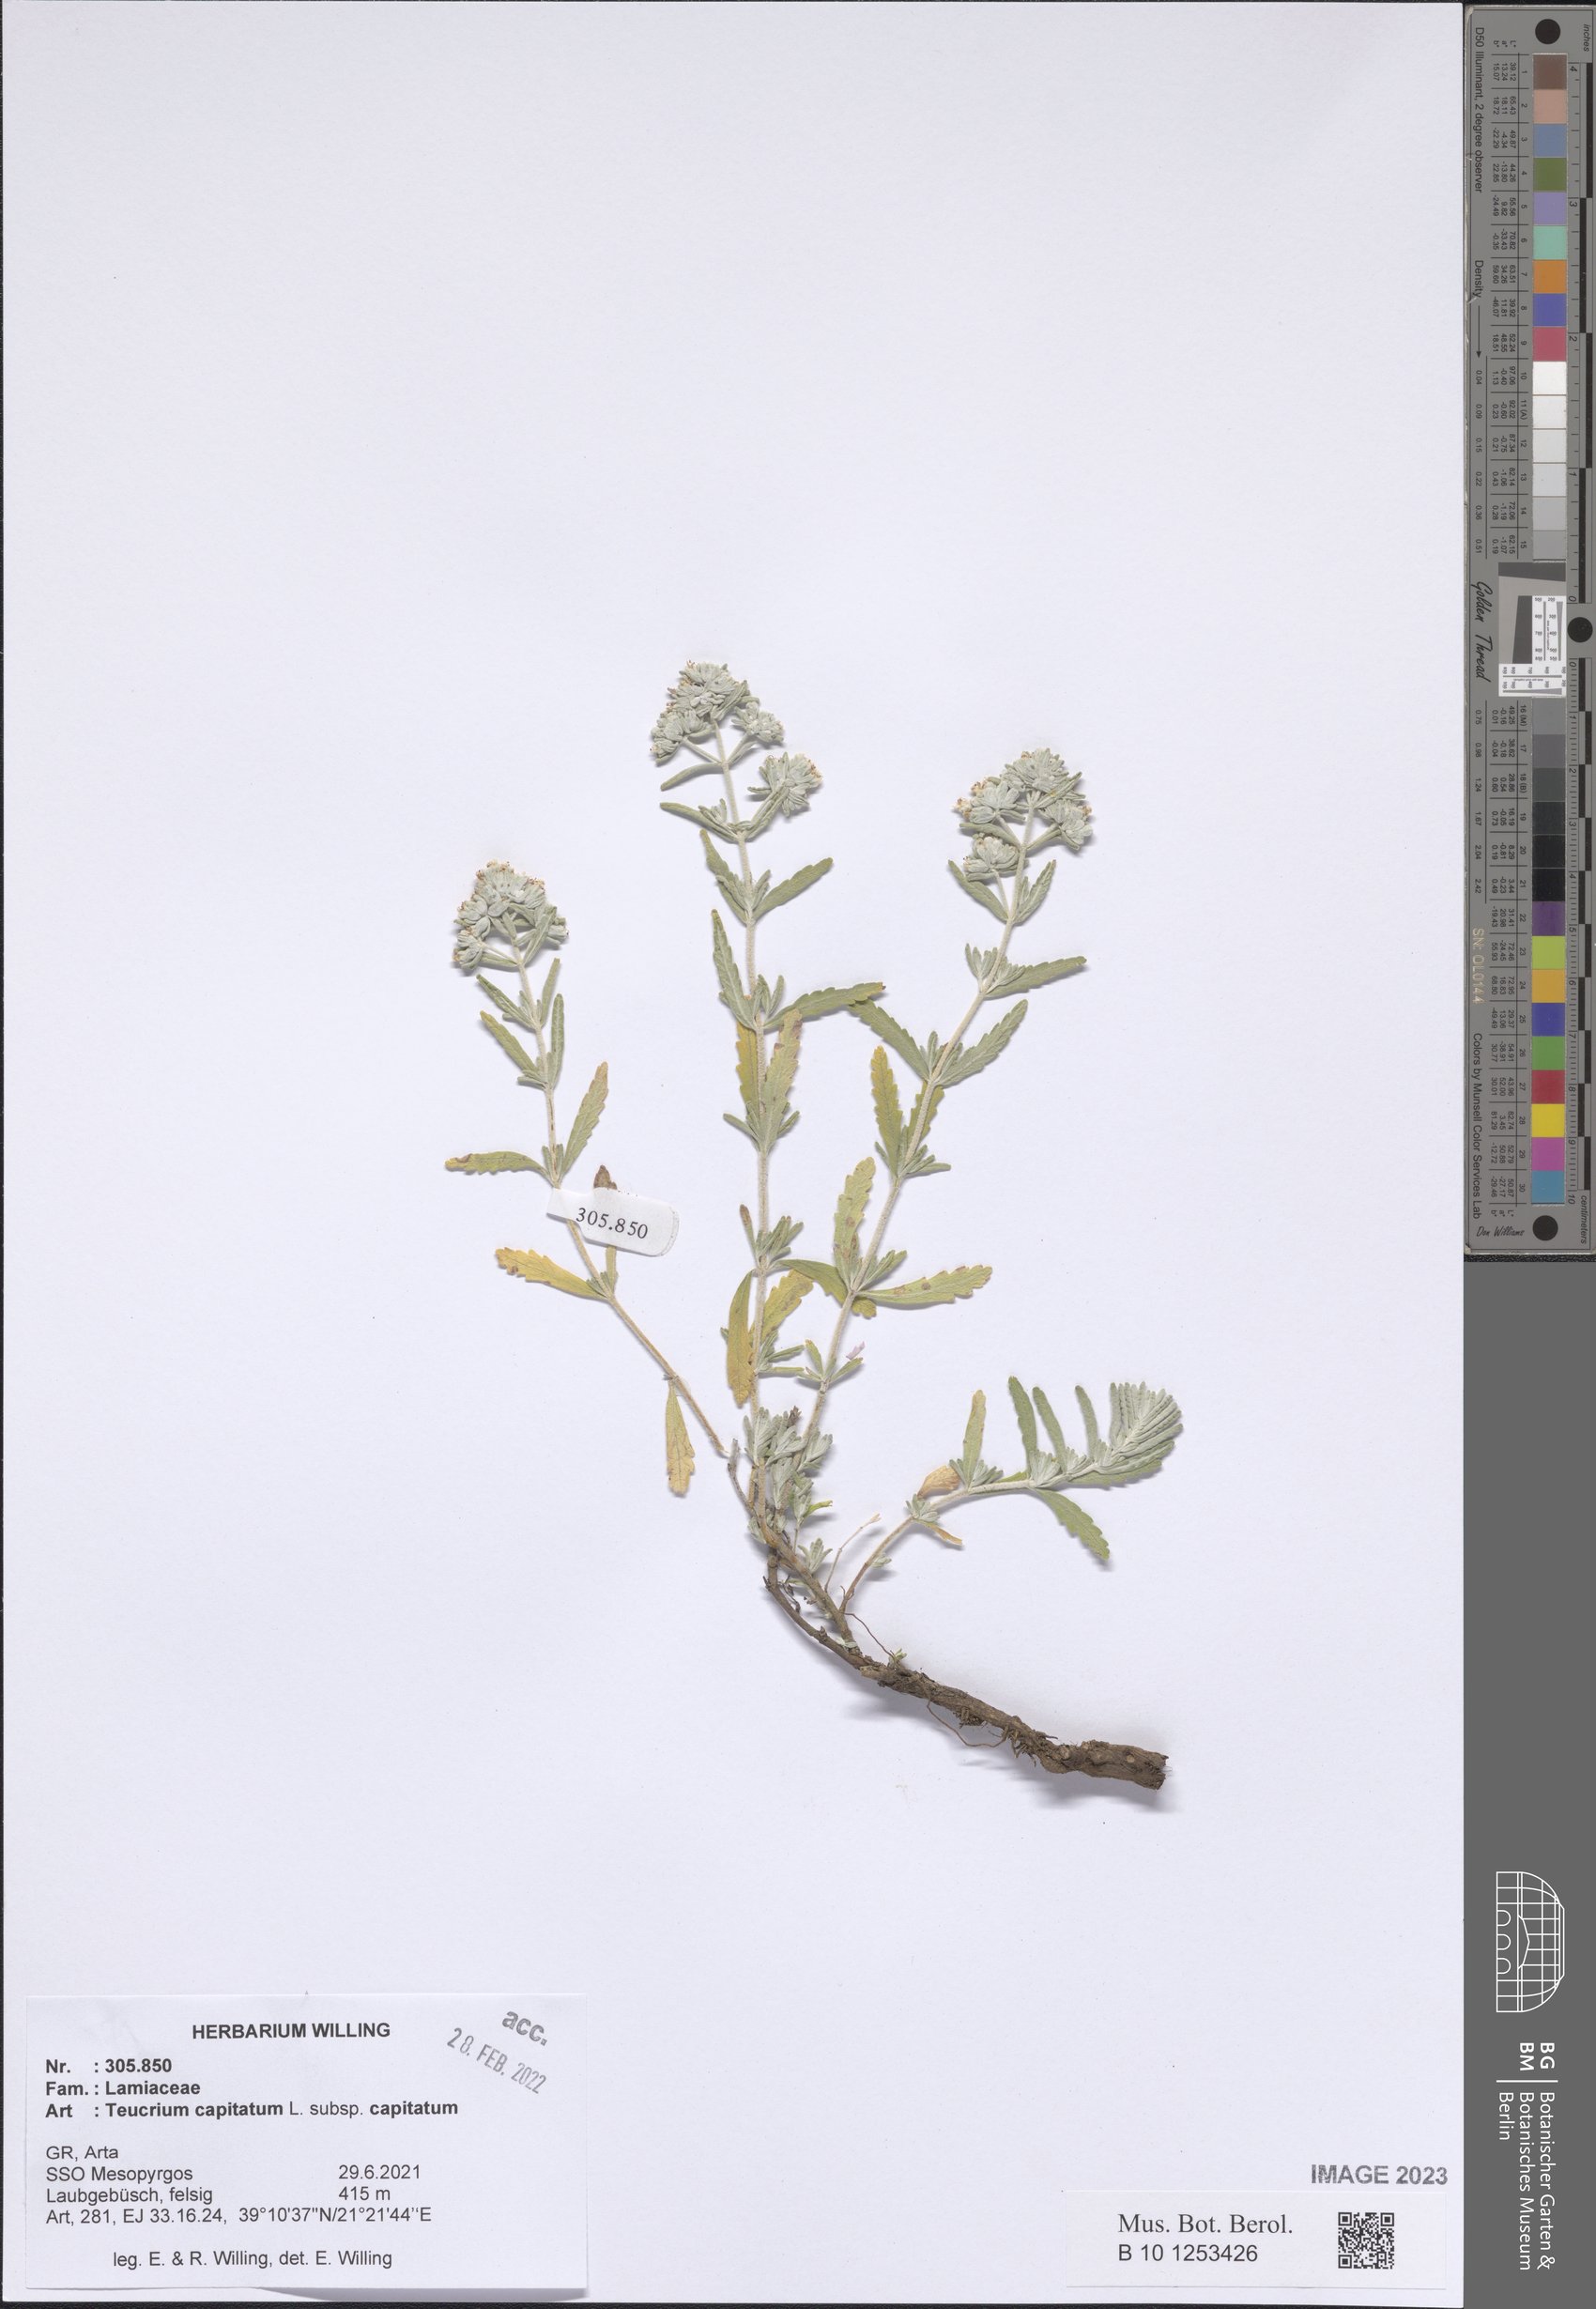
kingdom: Plantae
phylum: Tracheophyta
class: Magnoliopsida
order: Lamiales
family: Lamiaceae
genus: Teucrium
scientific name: Teucrium capitatum
